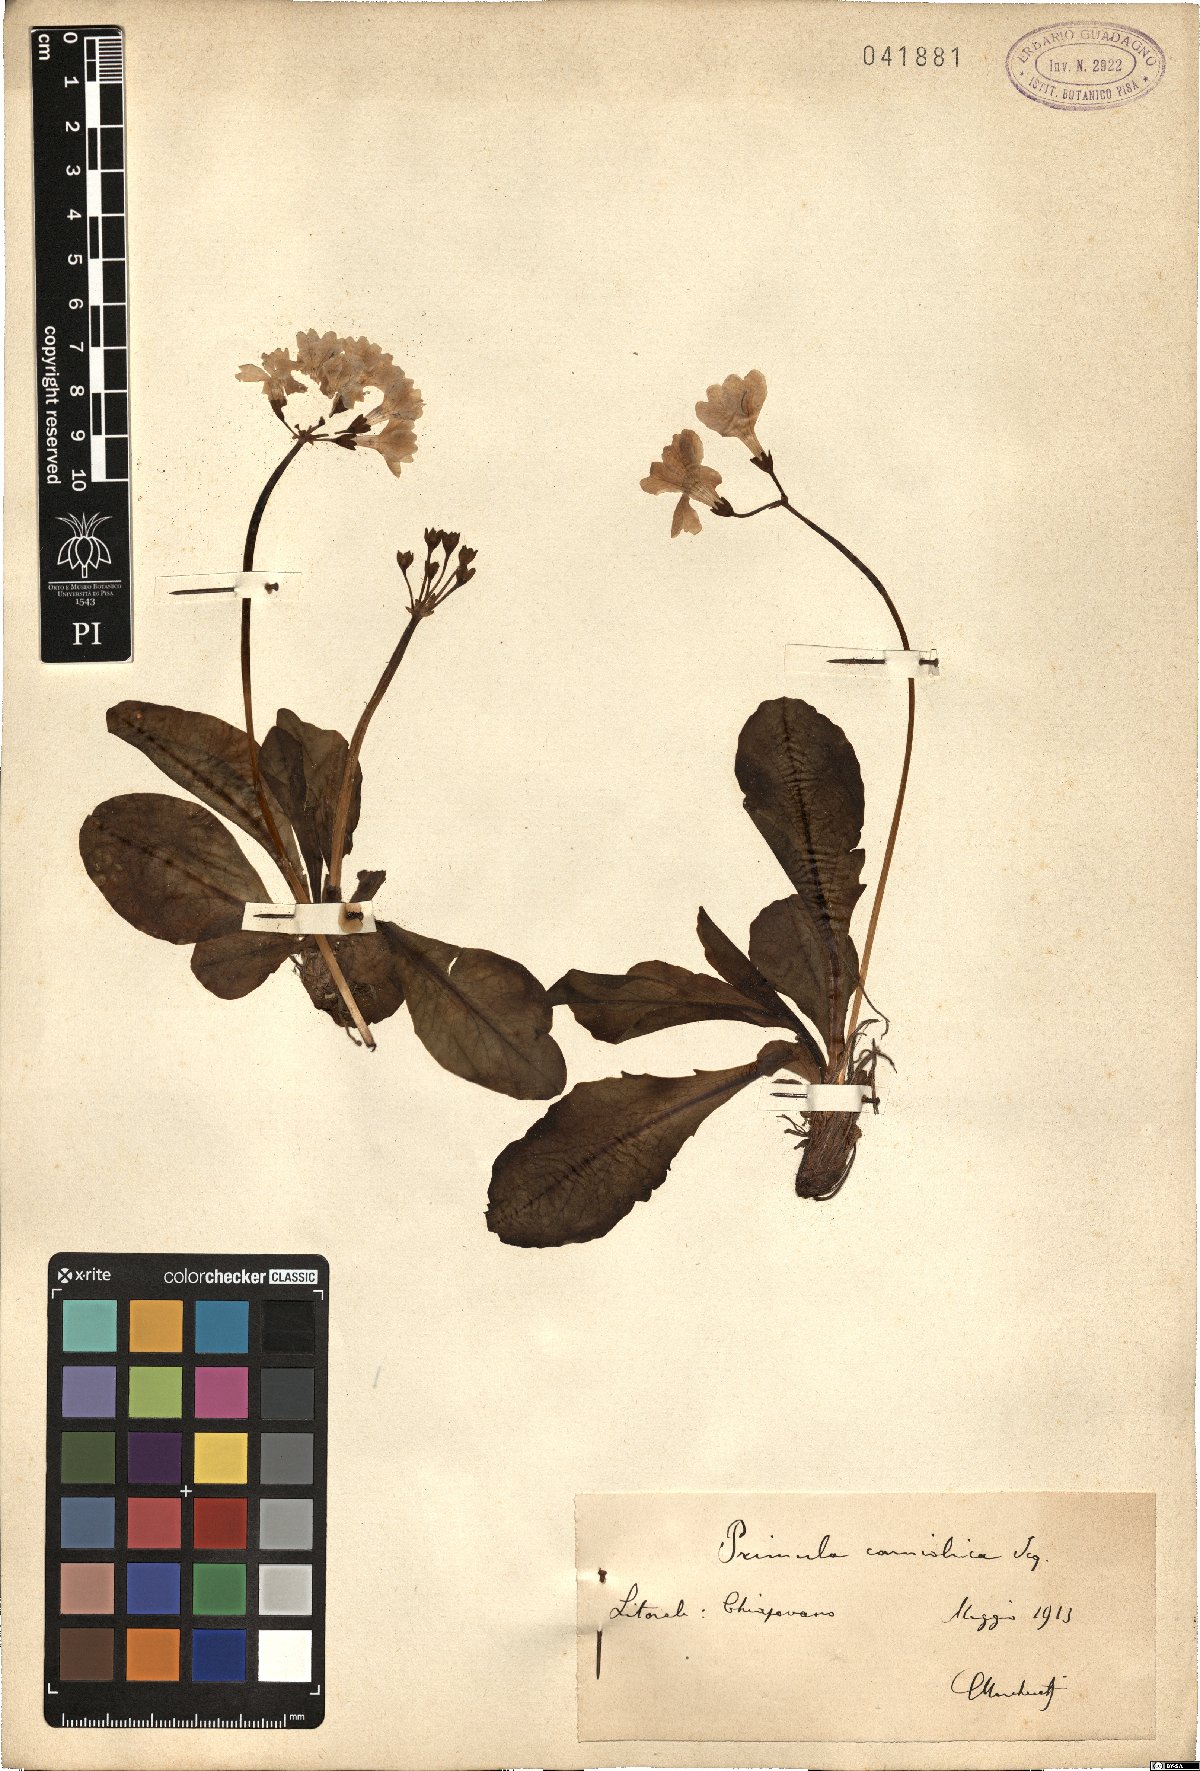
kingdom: Plantae
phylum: Tracheophyta
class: Magnoliopsida
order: Ericales
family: Primulaceae
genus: Primula
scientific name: Primula carniolica
